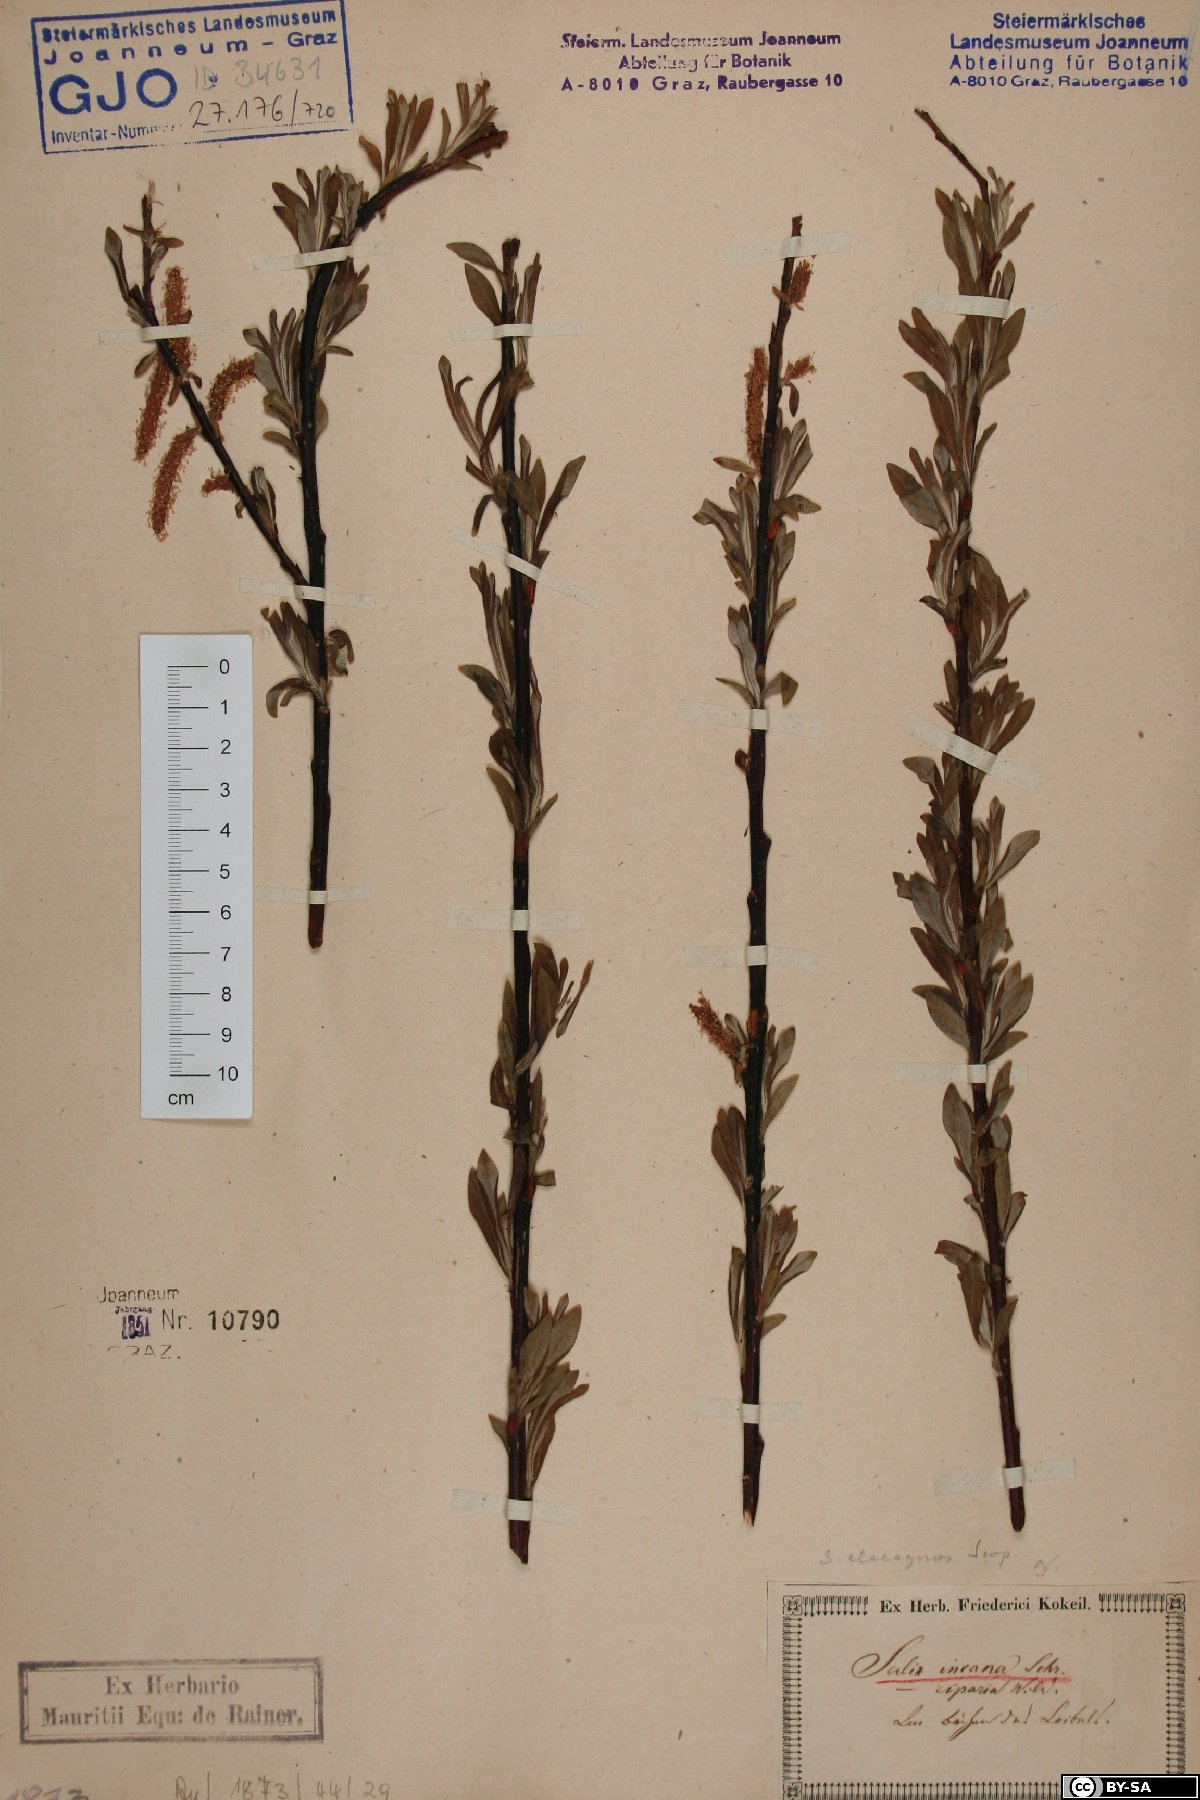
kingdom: Plantae
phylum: Tracheophyta
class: Magnoliopsida
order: Malpighiales
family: Salicaceae
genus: Salix
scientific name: Salix eleagnos
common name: Elaeagnus willow
